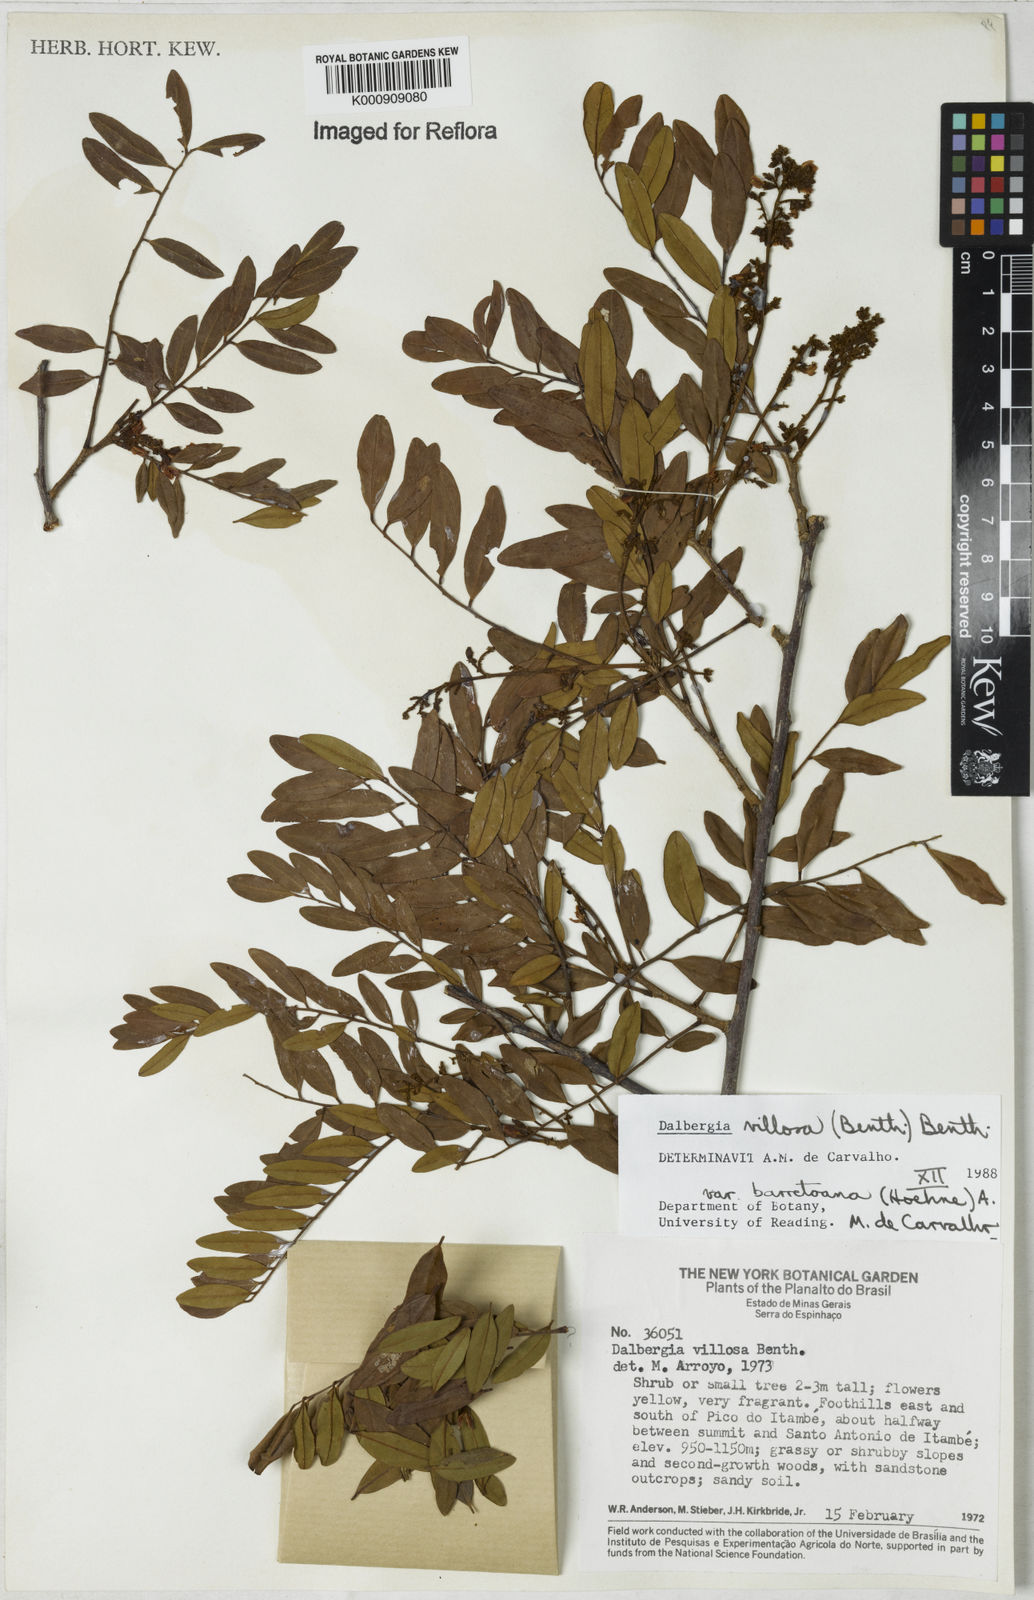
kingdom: Plantae
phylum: Tracheophyta
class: Magnoliopsida
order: Fabales
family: Fabaceae
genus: Dalbergia
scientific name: Dalbergia villosa
